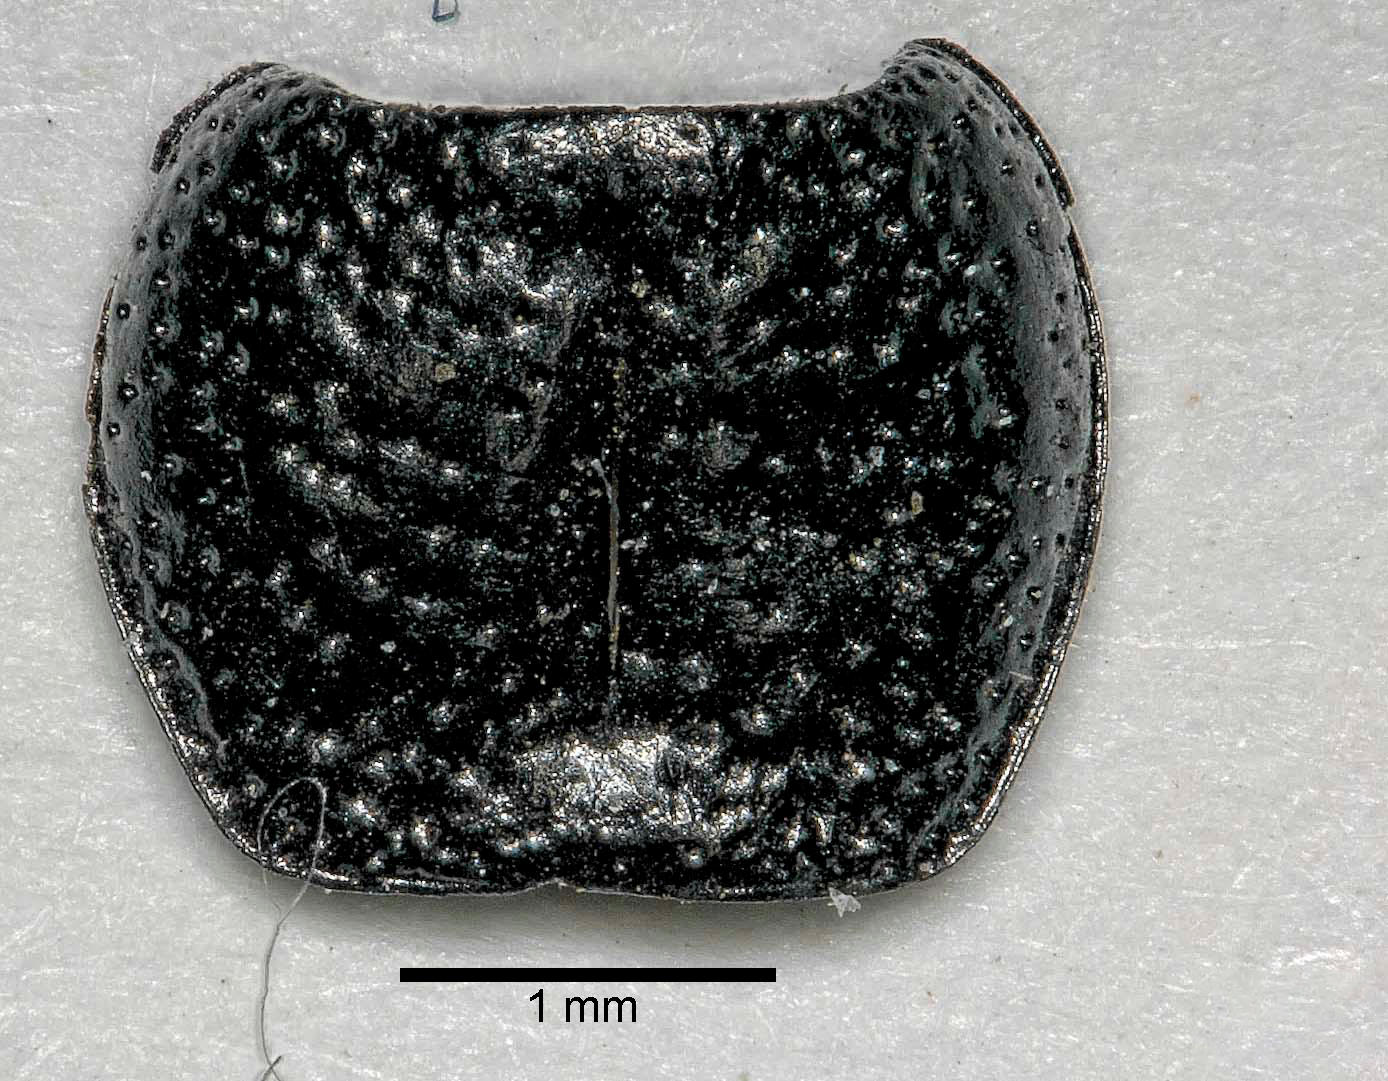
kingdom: Animalia
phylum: Arthropoda
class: Insecta
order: Coleoptera
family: Carabidae
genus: Dicheirus
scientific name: Dicheirus dilatatus
